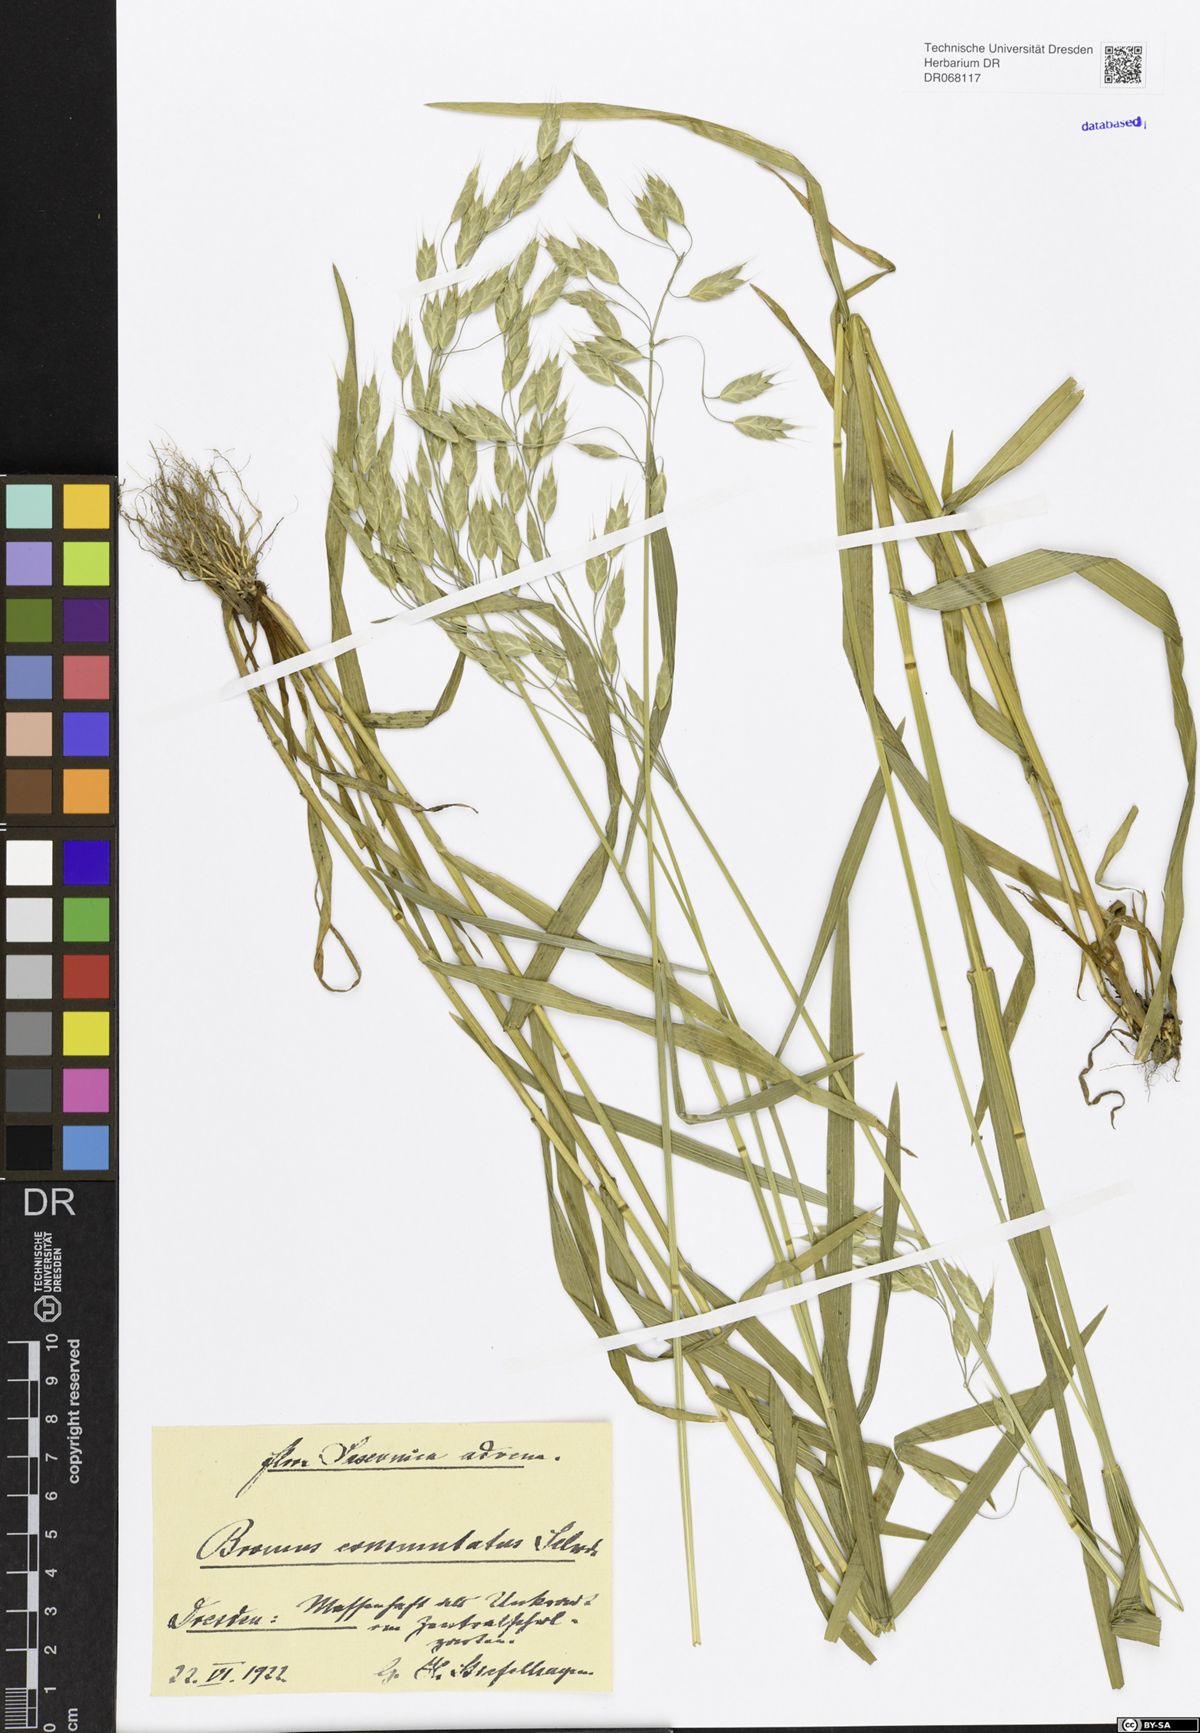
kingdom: Plantae
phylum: Tracheophyta
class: Liliopsida
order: Poales
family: Poaceae
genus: Bromus
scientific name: Bromus commutatus
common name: Meadow brome
